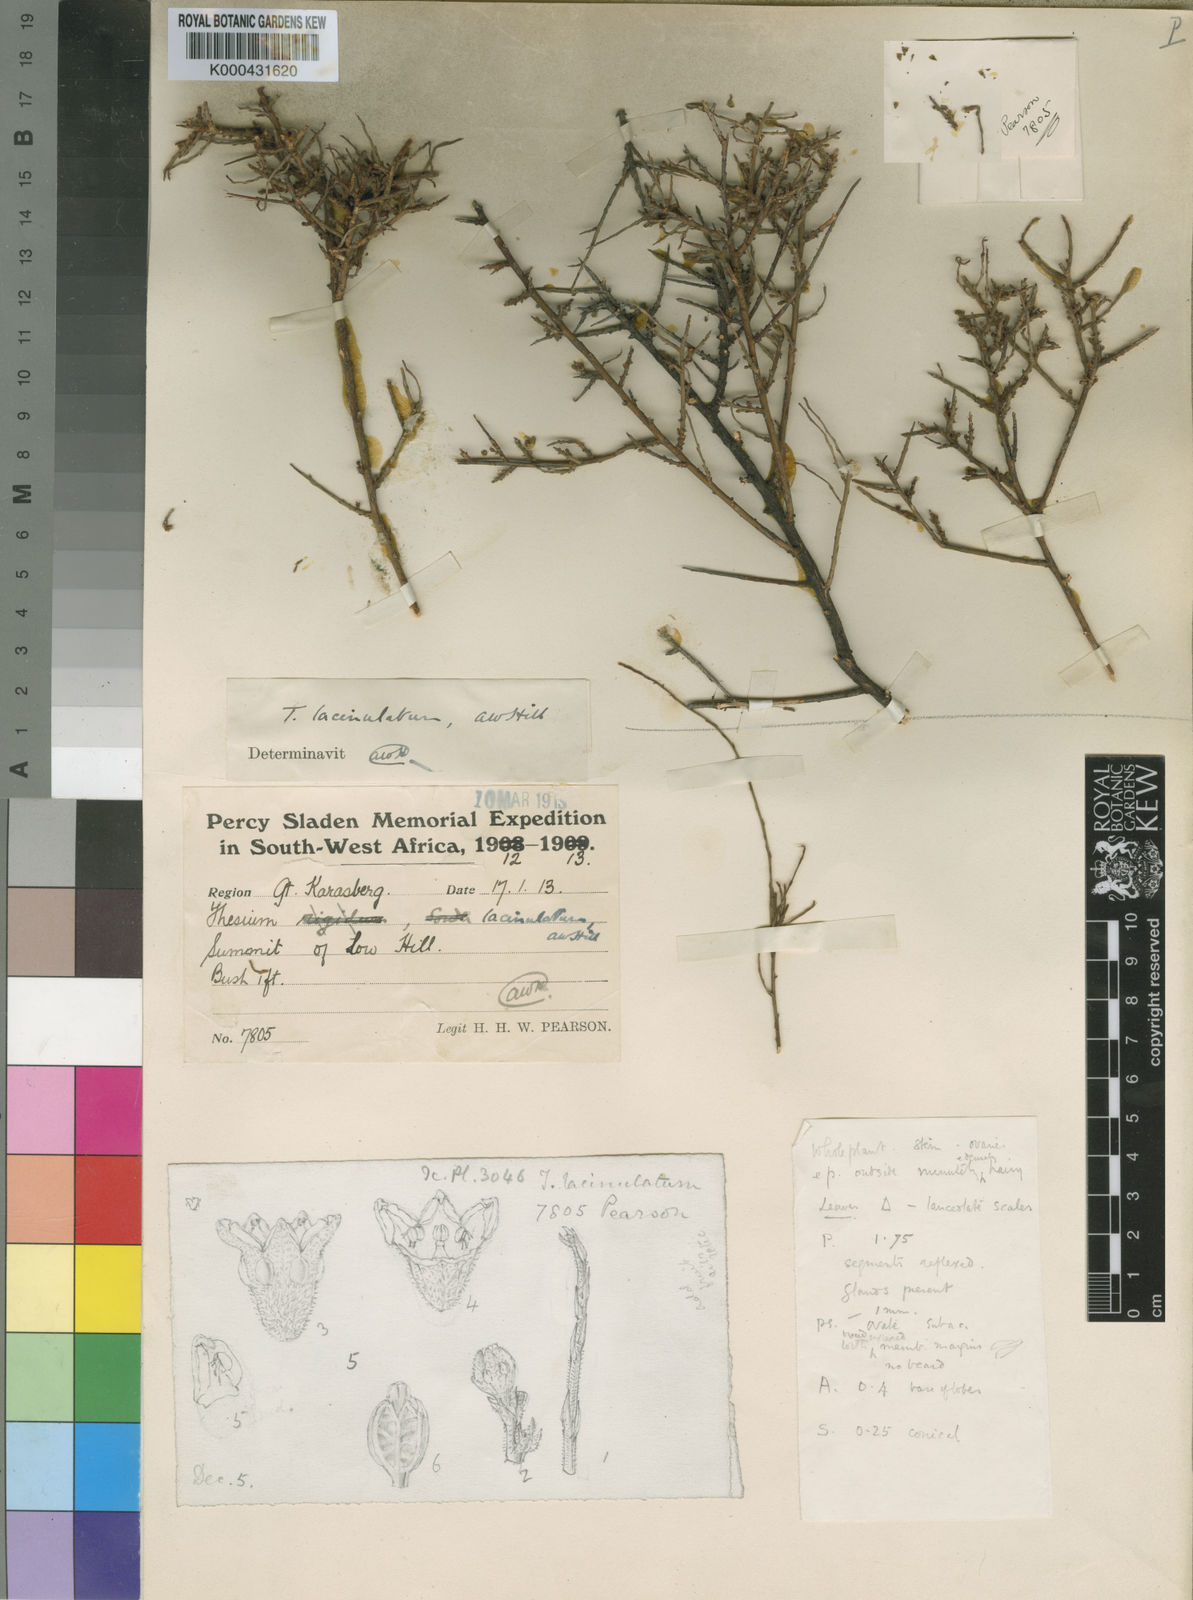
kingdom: Plantae
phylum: Tracheophyta
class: Magnoliopsida
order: Santalales
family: Thesiaceae
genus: Thesium
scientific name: Thesium lacinulatum
